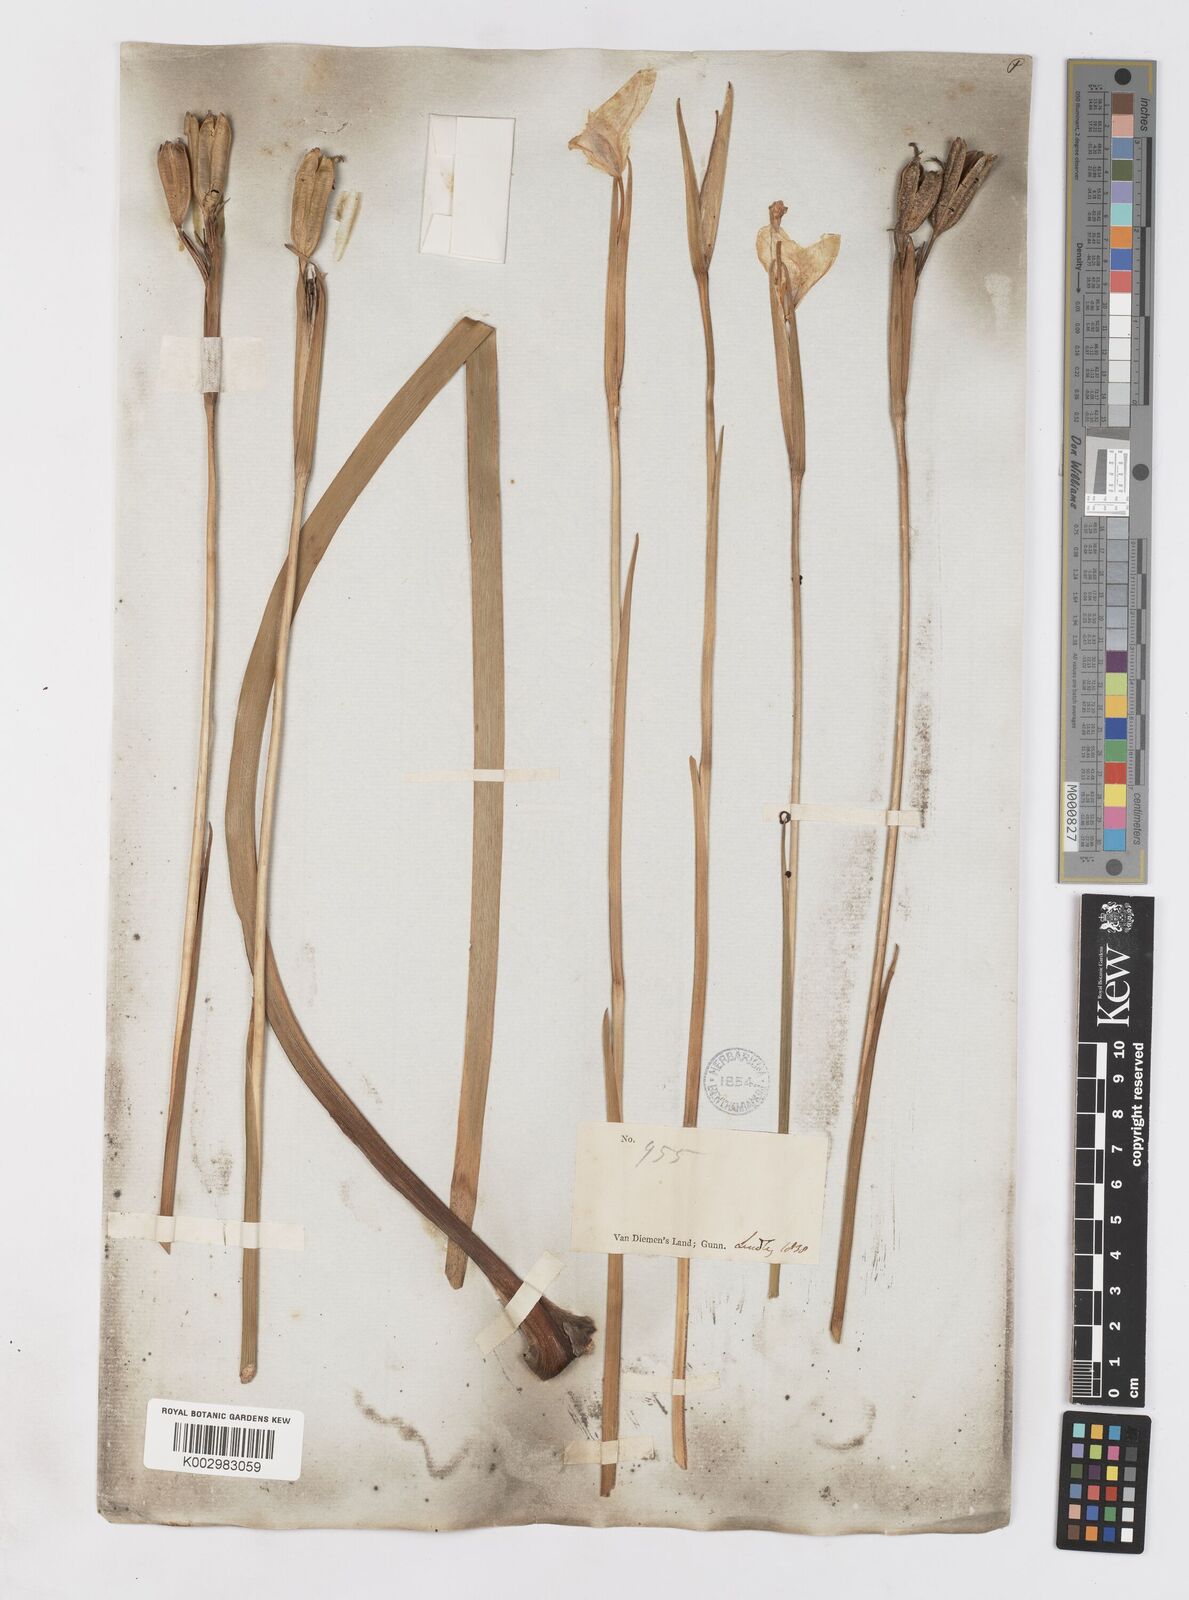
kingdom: Plantae
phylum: Tracheophyta
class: Liliopsida
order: Asparagales
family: Iridaceae
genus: Diplarrena
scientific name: Diplarrena moraea
